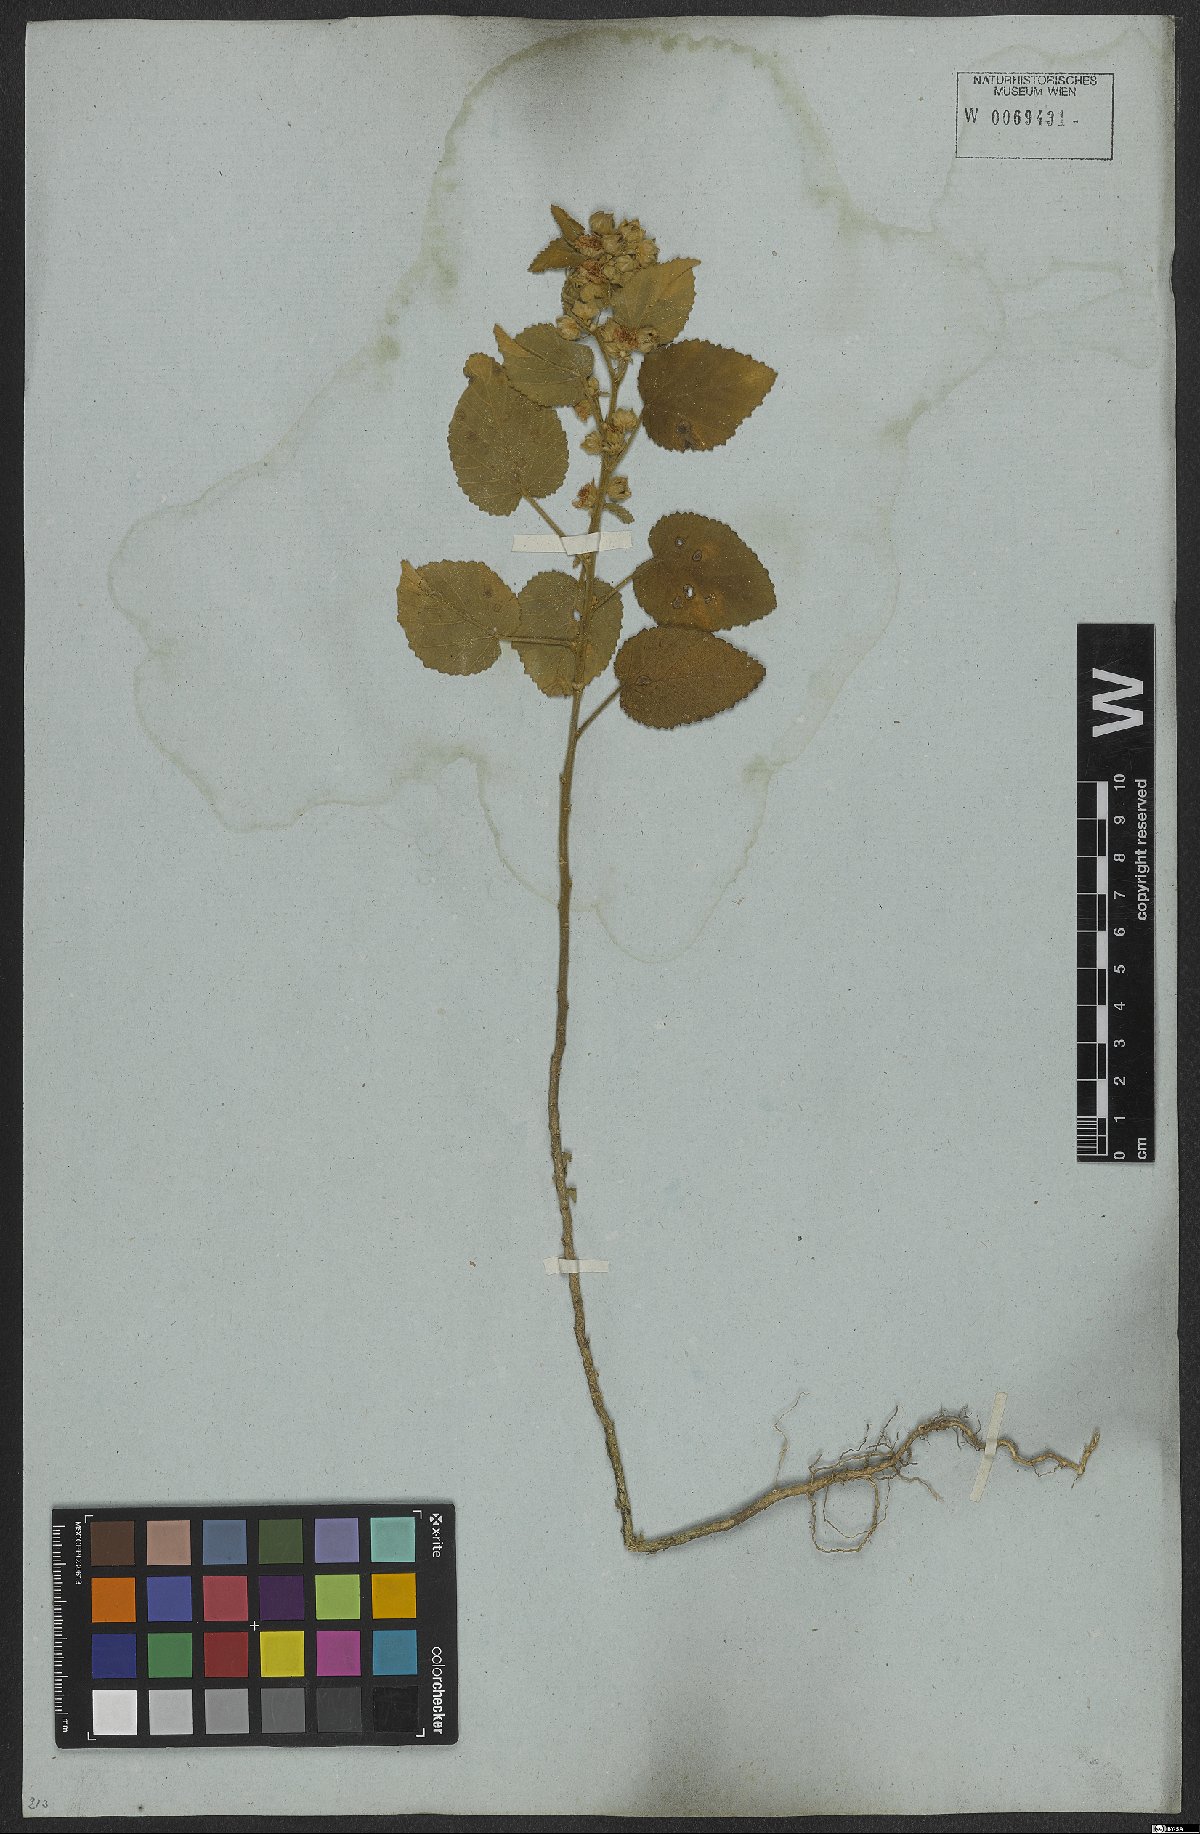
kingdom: Plantae
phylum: Tracheophyta
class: Magnoliopsida
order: Malvales
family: Malvaceae
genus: Sida
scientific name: Sida cordifolia
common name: Ilima
